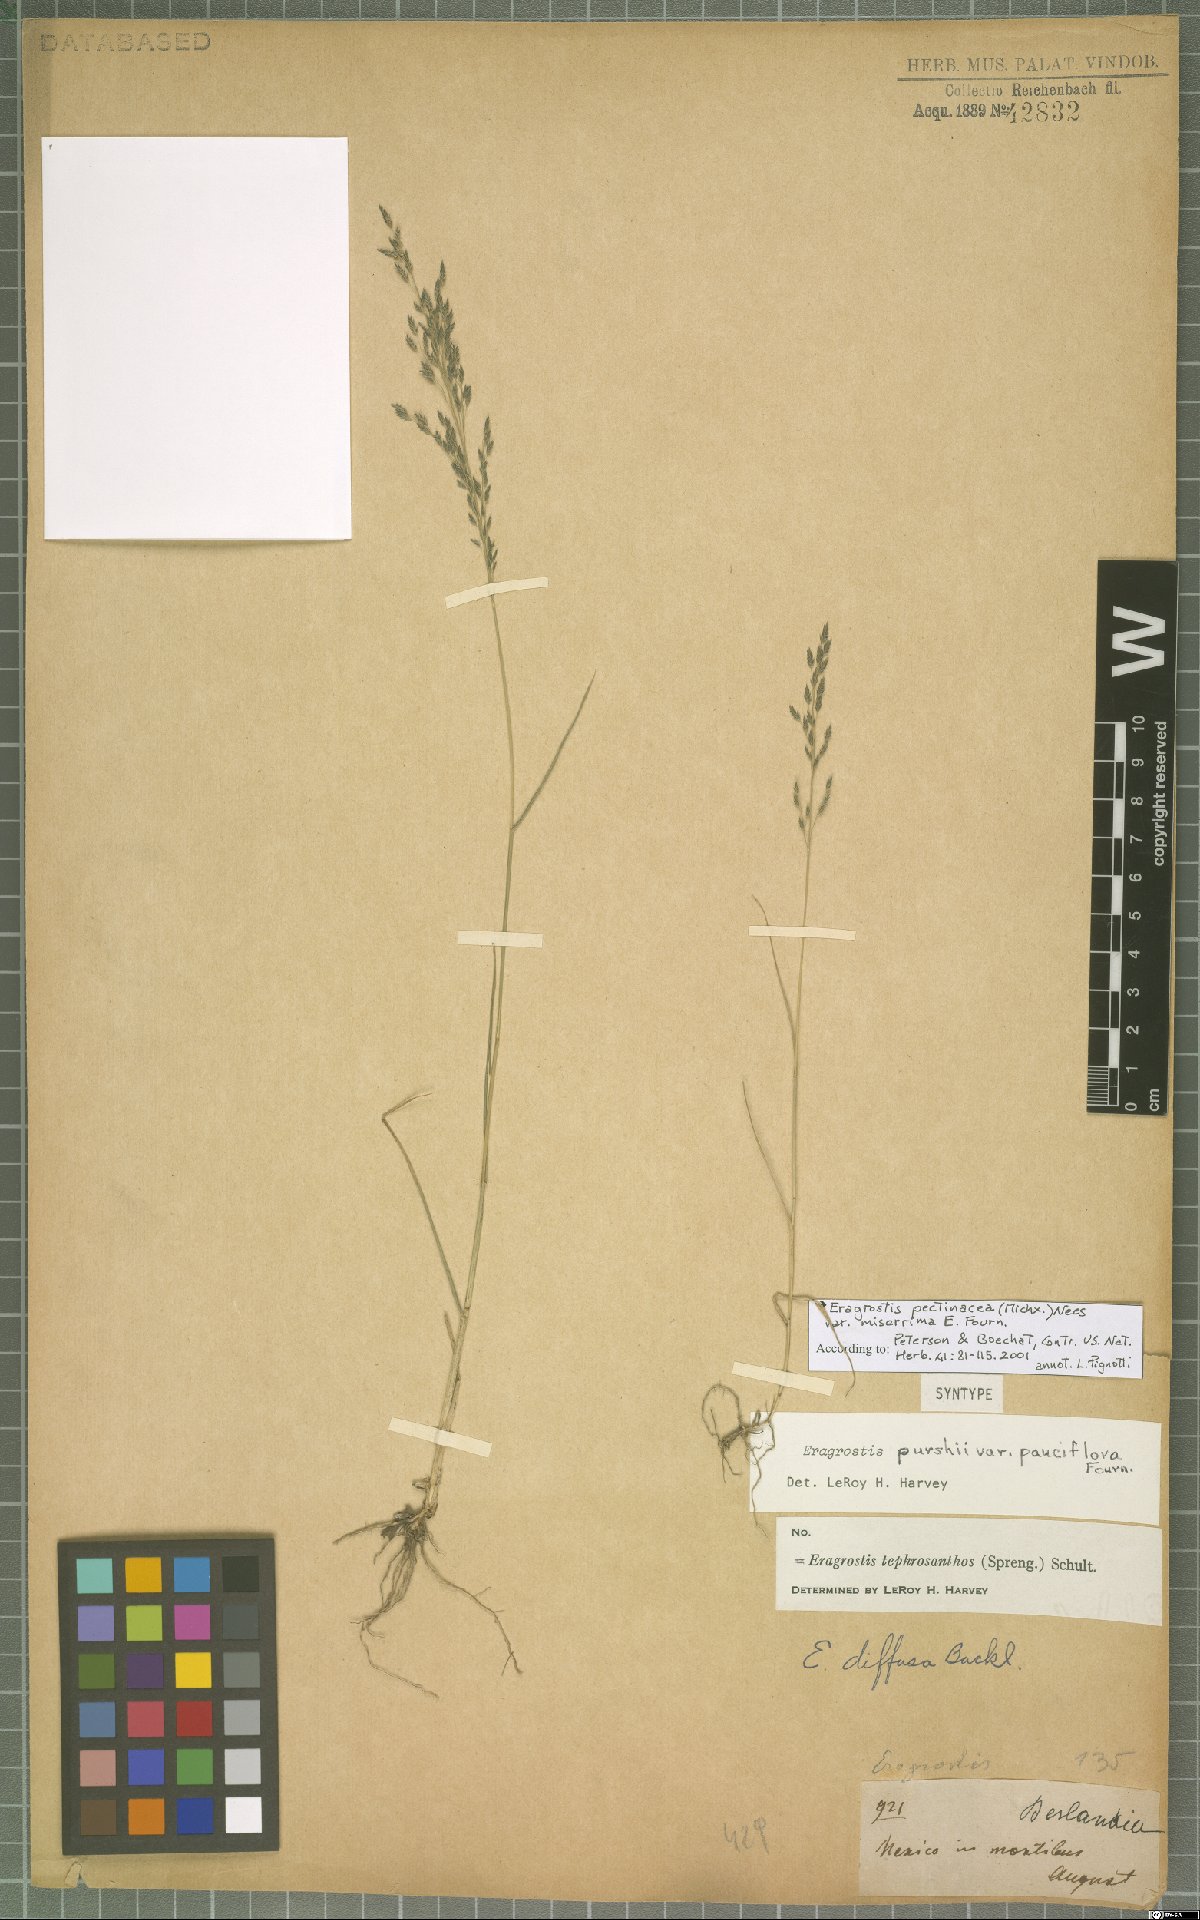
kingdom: Plantae
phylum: Tracheophyta
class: Liliopsida
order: Poales
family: Poaceae
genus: Eragrostis
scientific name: Eragrostis tephrosanthos
